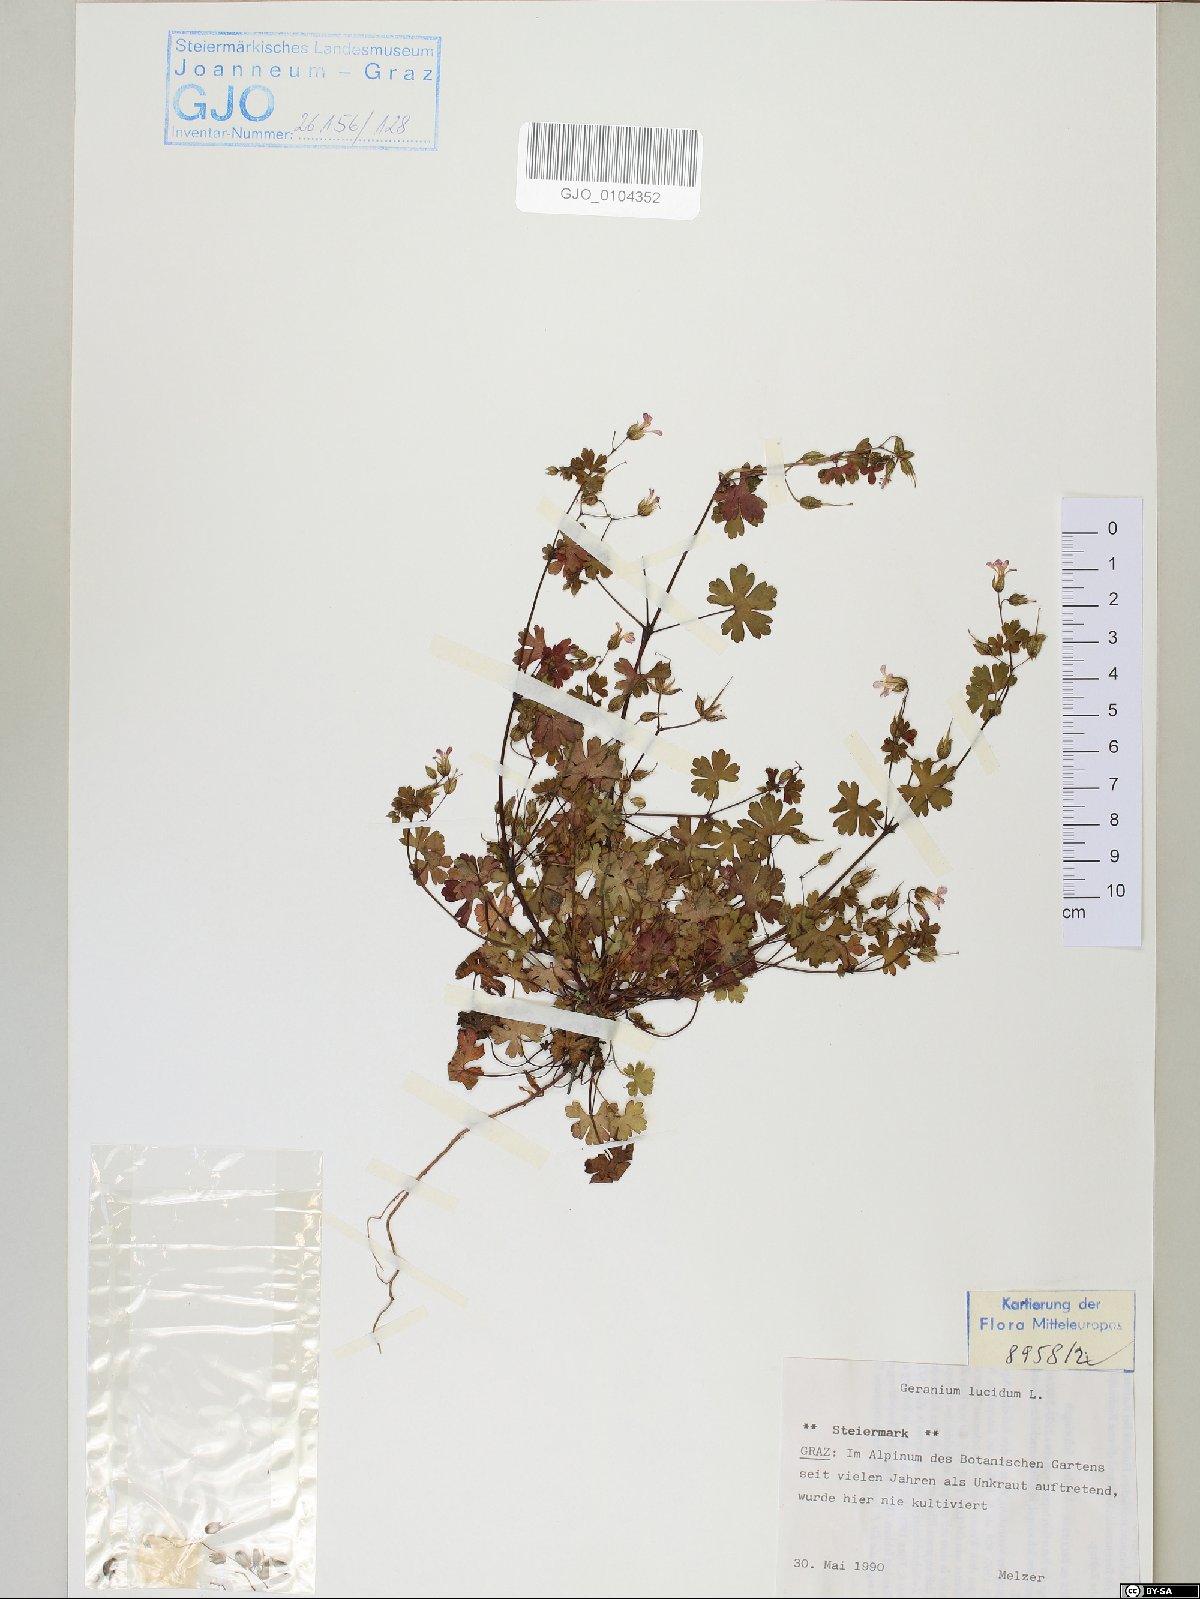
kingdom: Plantae
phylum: Tracheophyta
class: Magnoliopsida
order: Geraniales
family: Geraniaceae
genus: Geranium
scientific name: Geranium lucidum
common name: Shining crane's-bill
